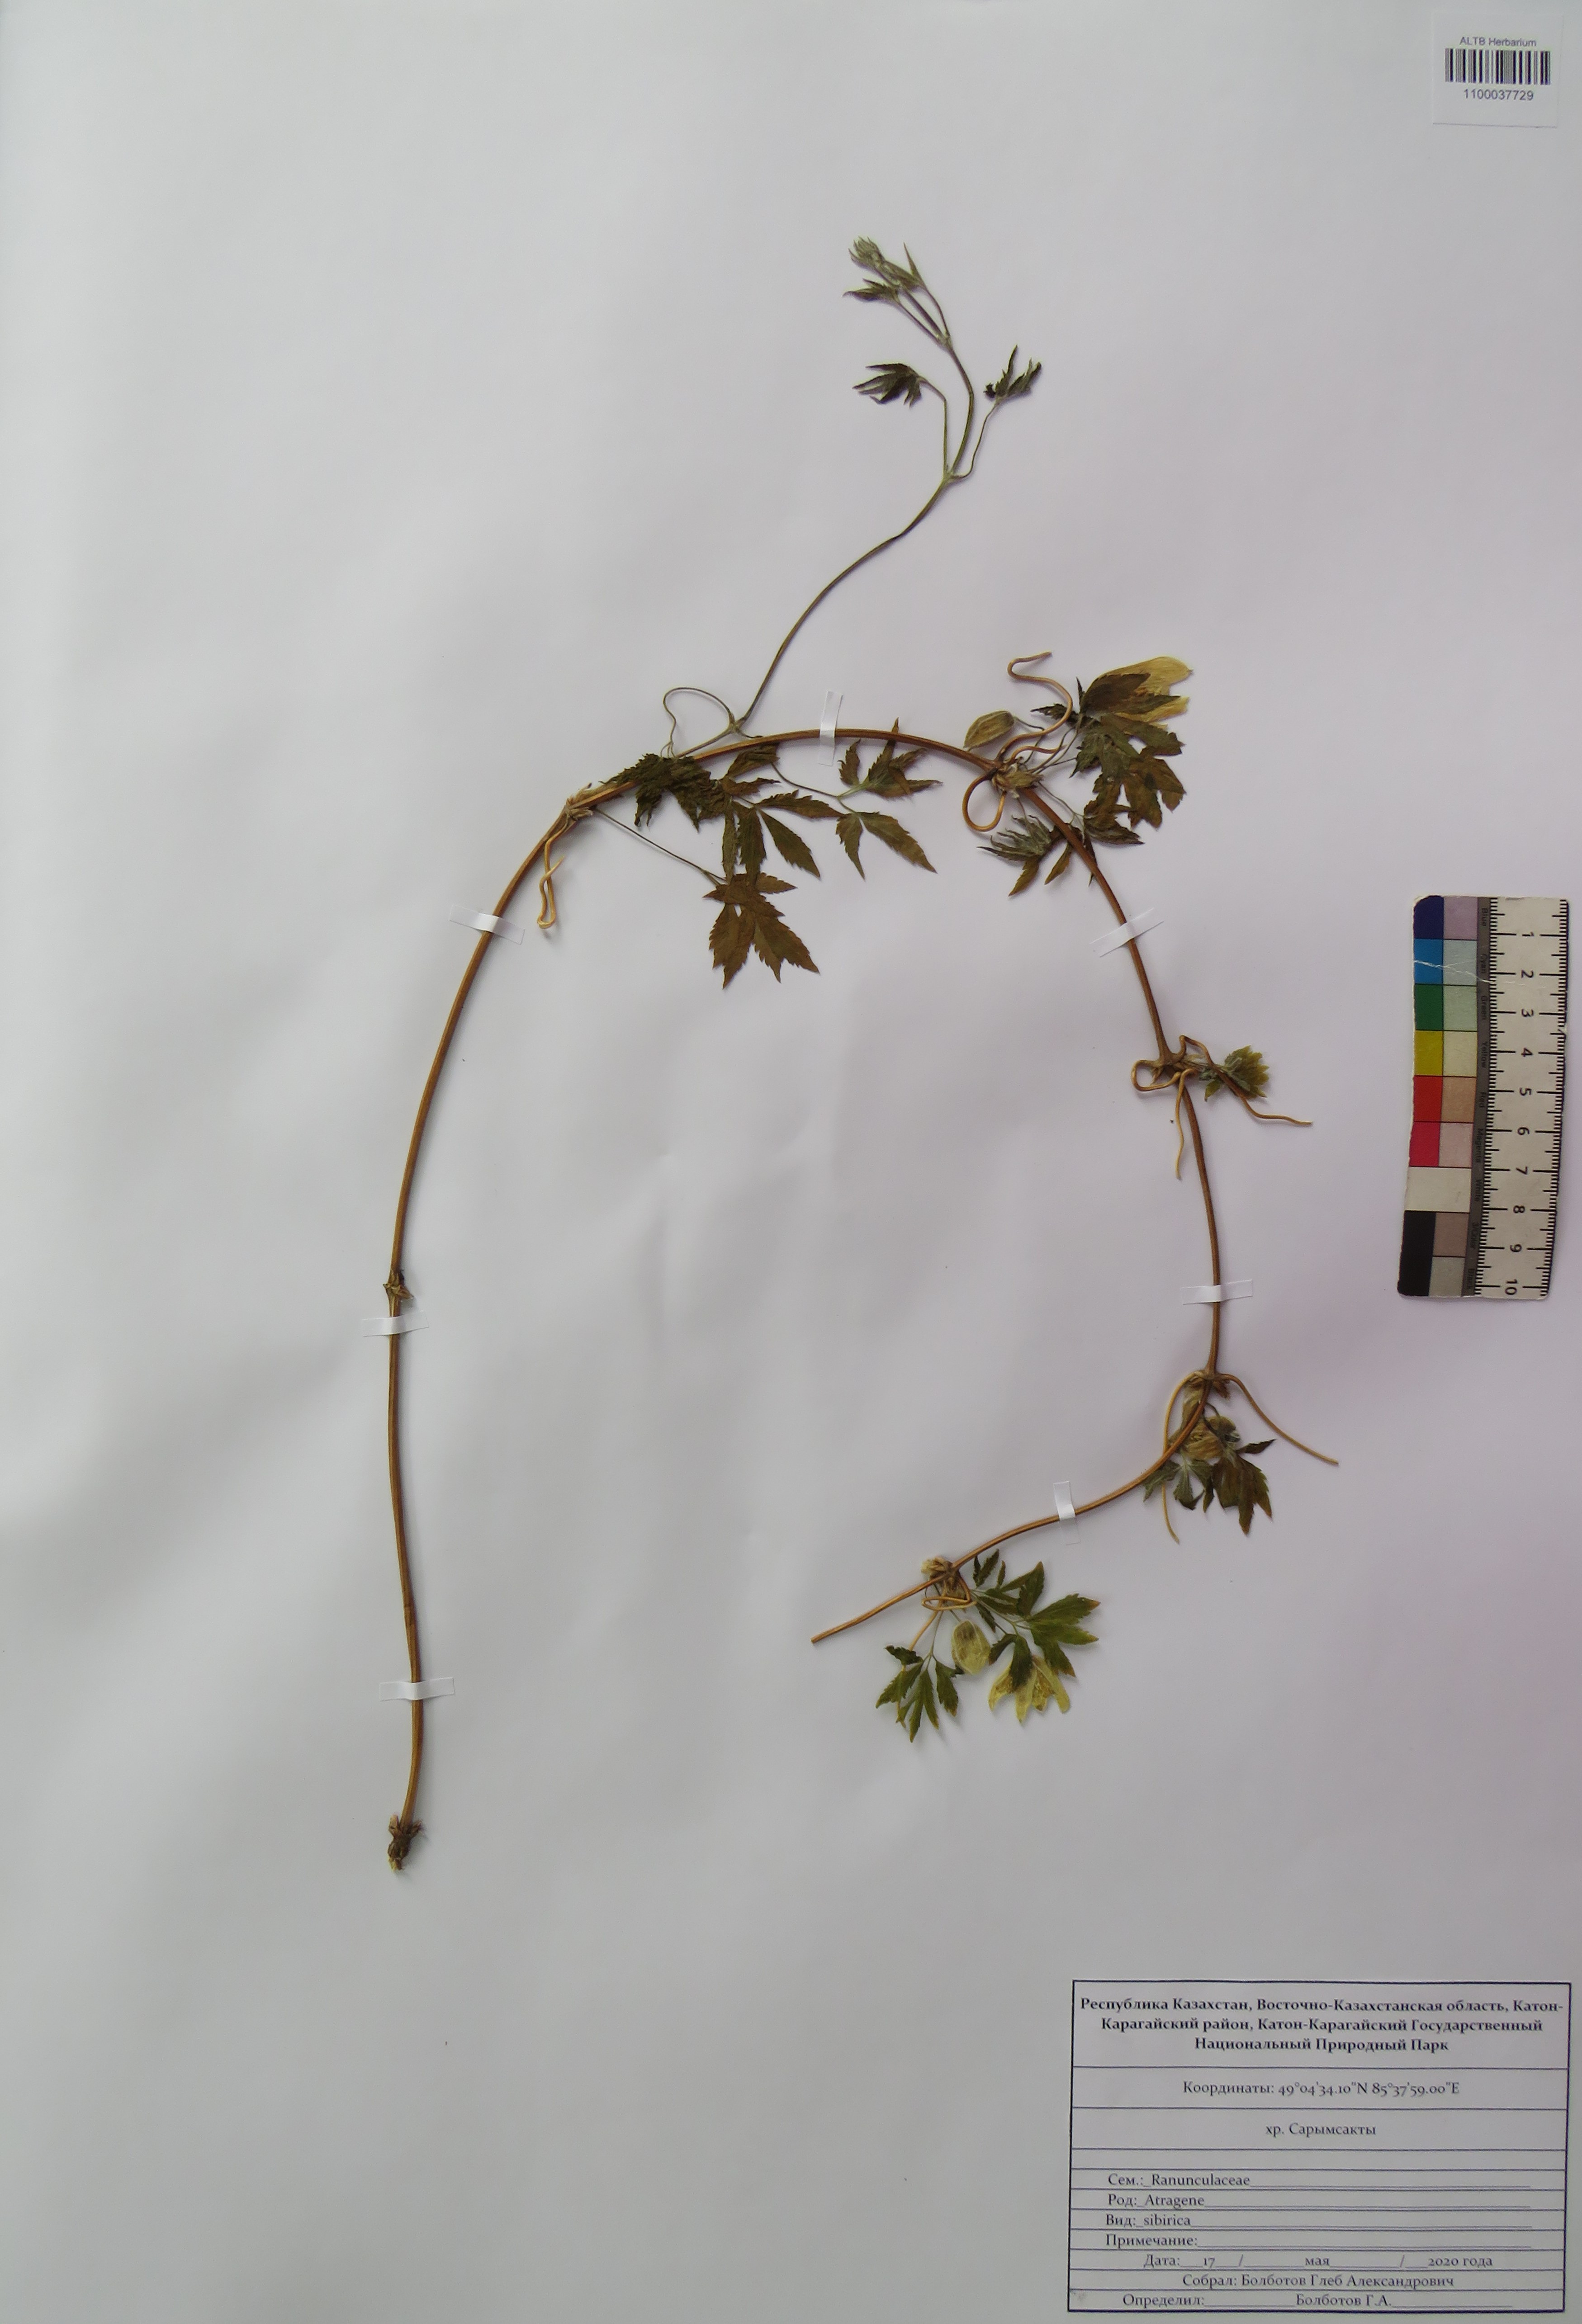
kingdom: Plantae
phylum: Tracheophyta
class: Magnoliopsida
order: Ranunculales
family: Ranunculaceae
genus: Clematis
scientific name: Clematis sibirica
